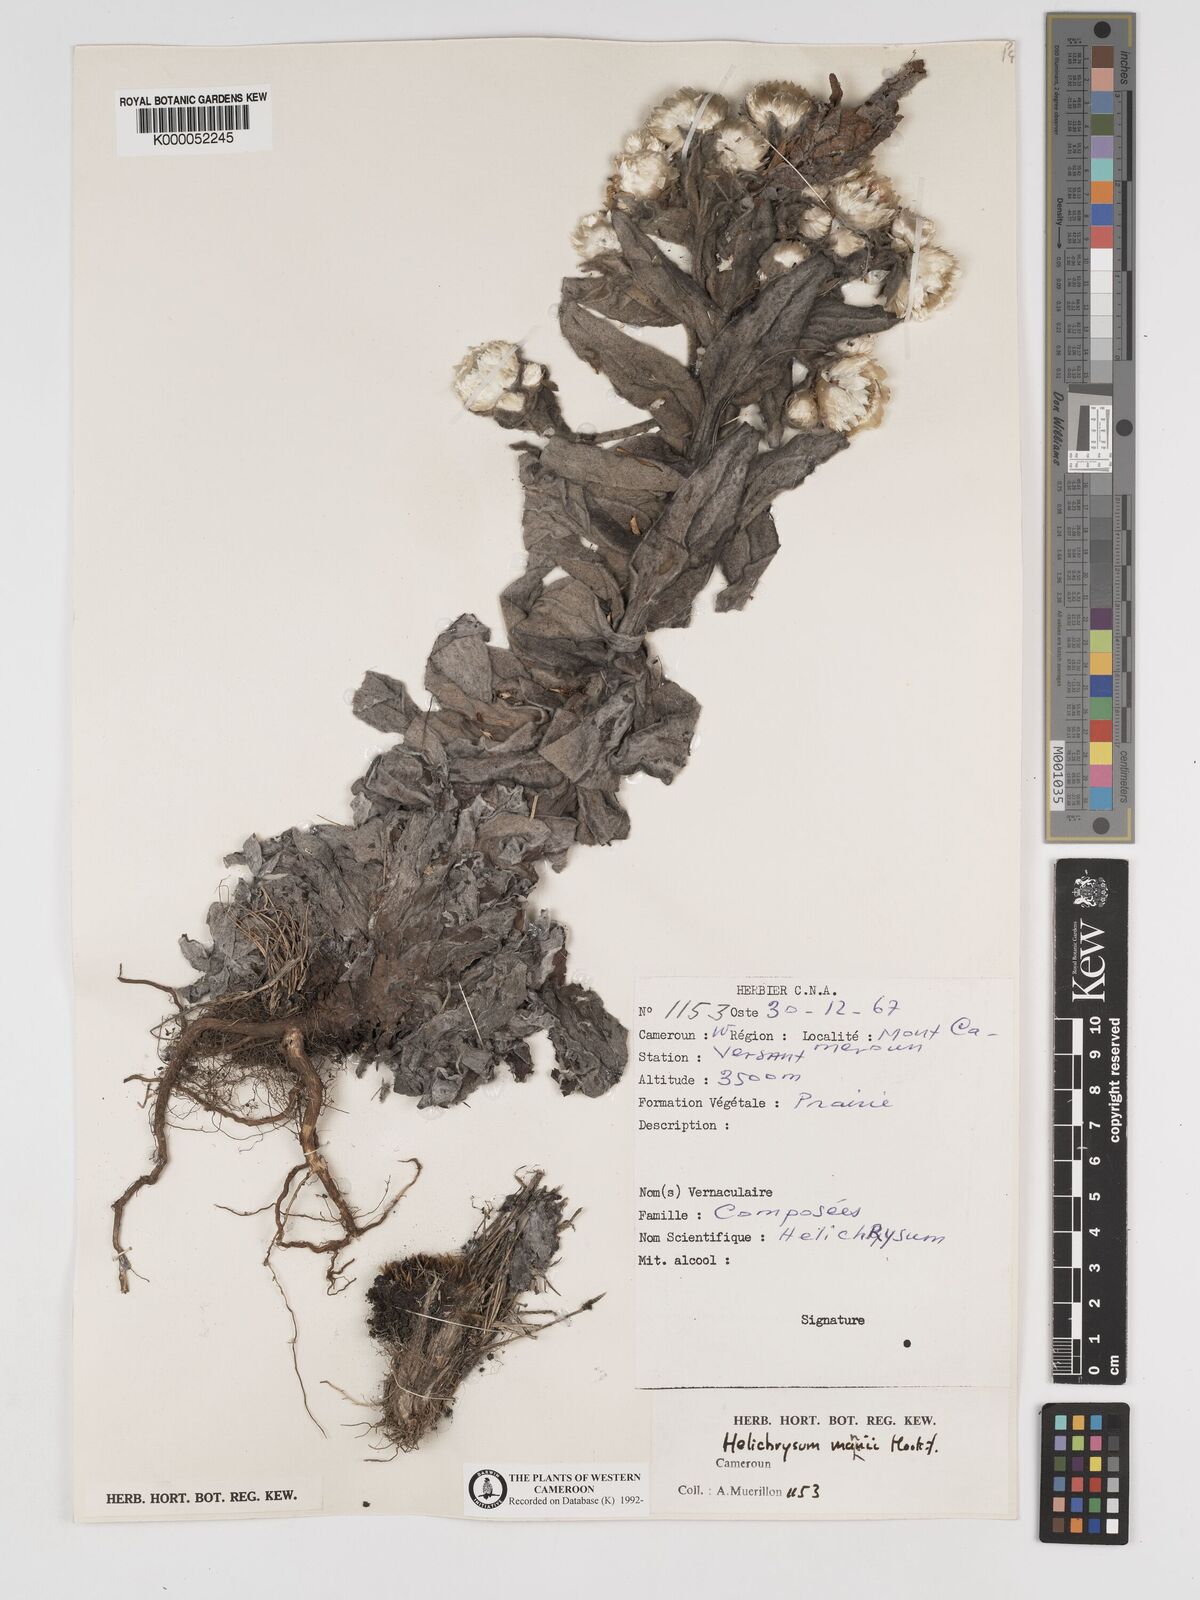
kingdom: Plantae
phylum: Tracheophyta
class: Magnoliopsida
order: Asterales
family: Asteraceae
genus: Helichrysum
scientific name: Helichrysum mannii
